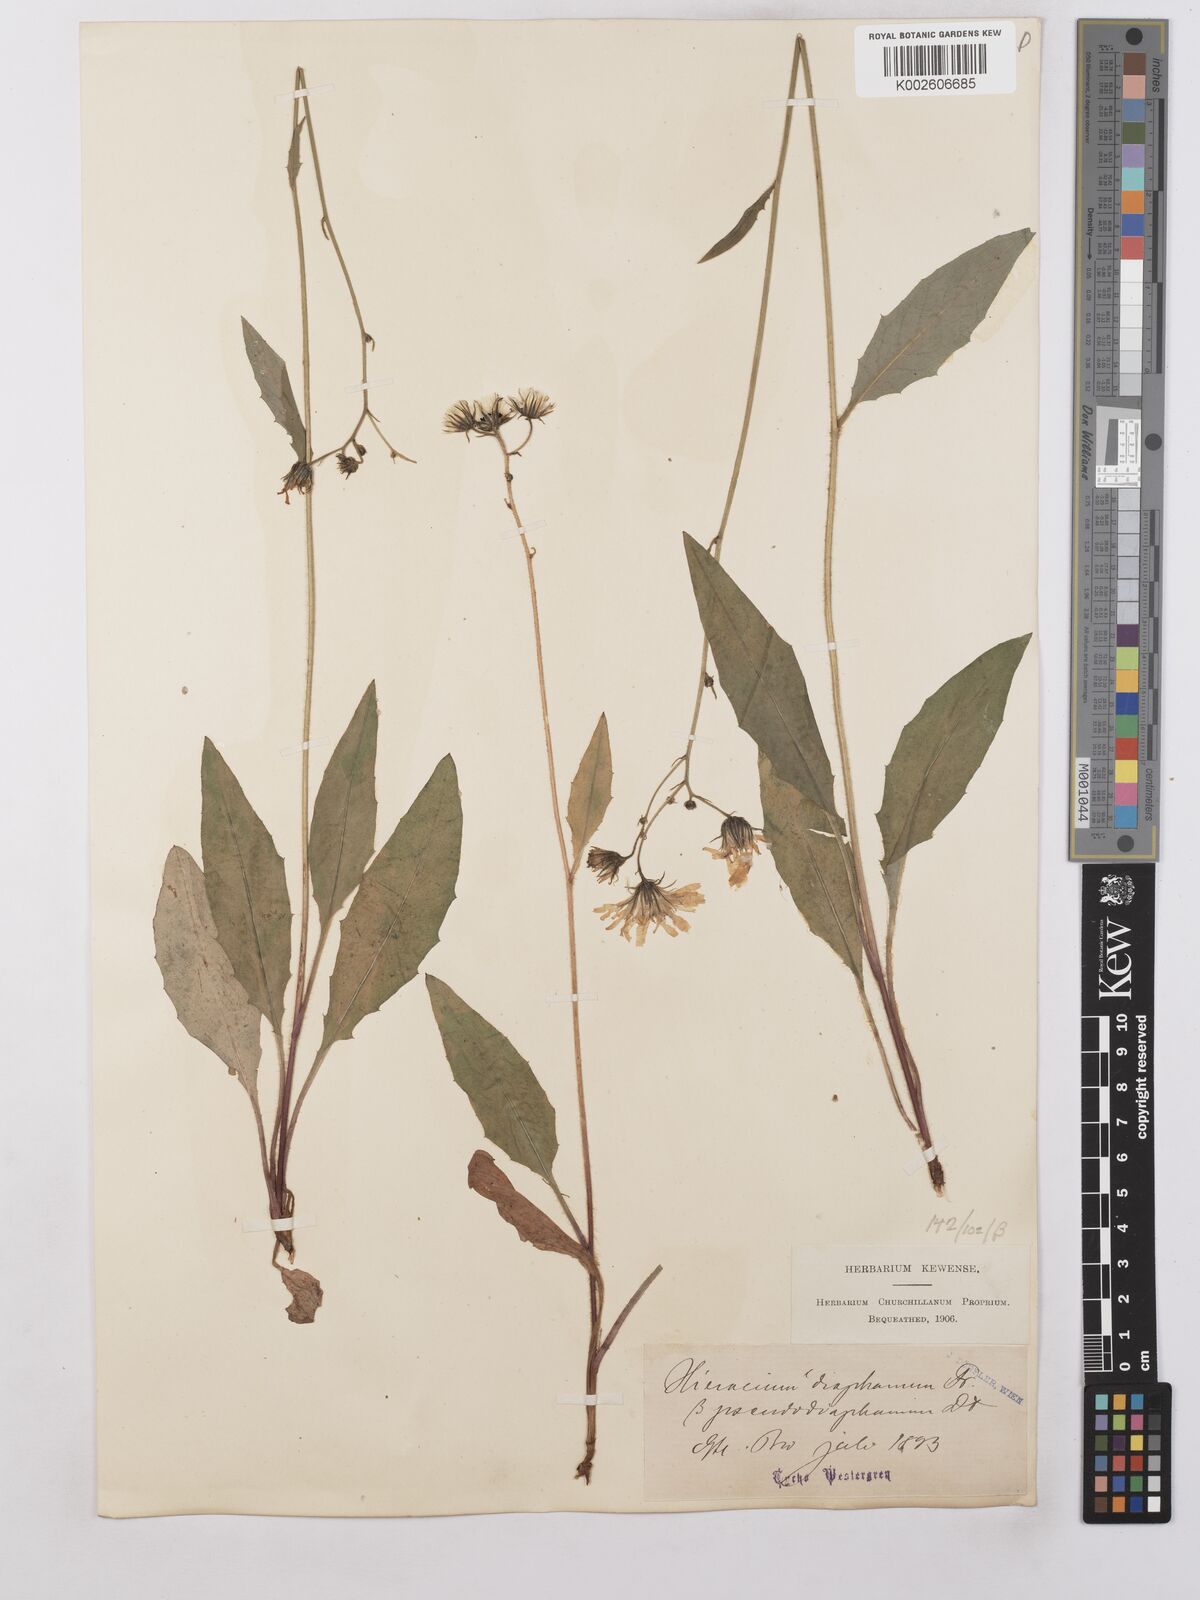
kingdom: Plantae
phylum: Tracheophyta
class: Magnoliopsida
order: Asterales
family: Asteraceae
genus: Hieracium
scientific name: Hieracium lachenalii
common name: Common hawkweed
